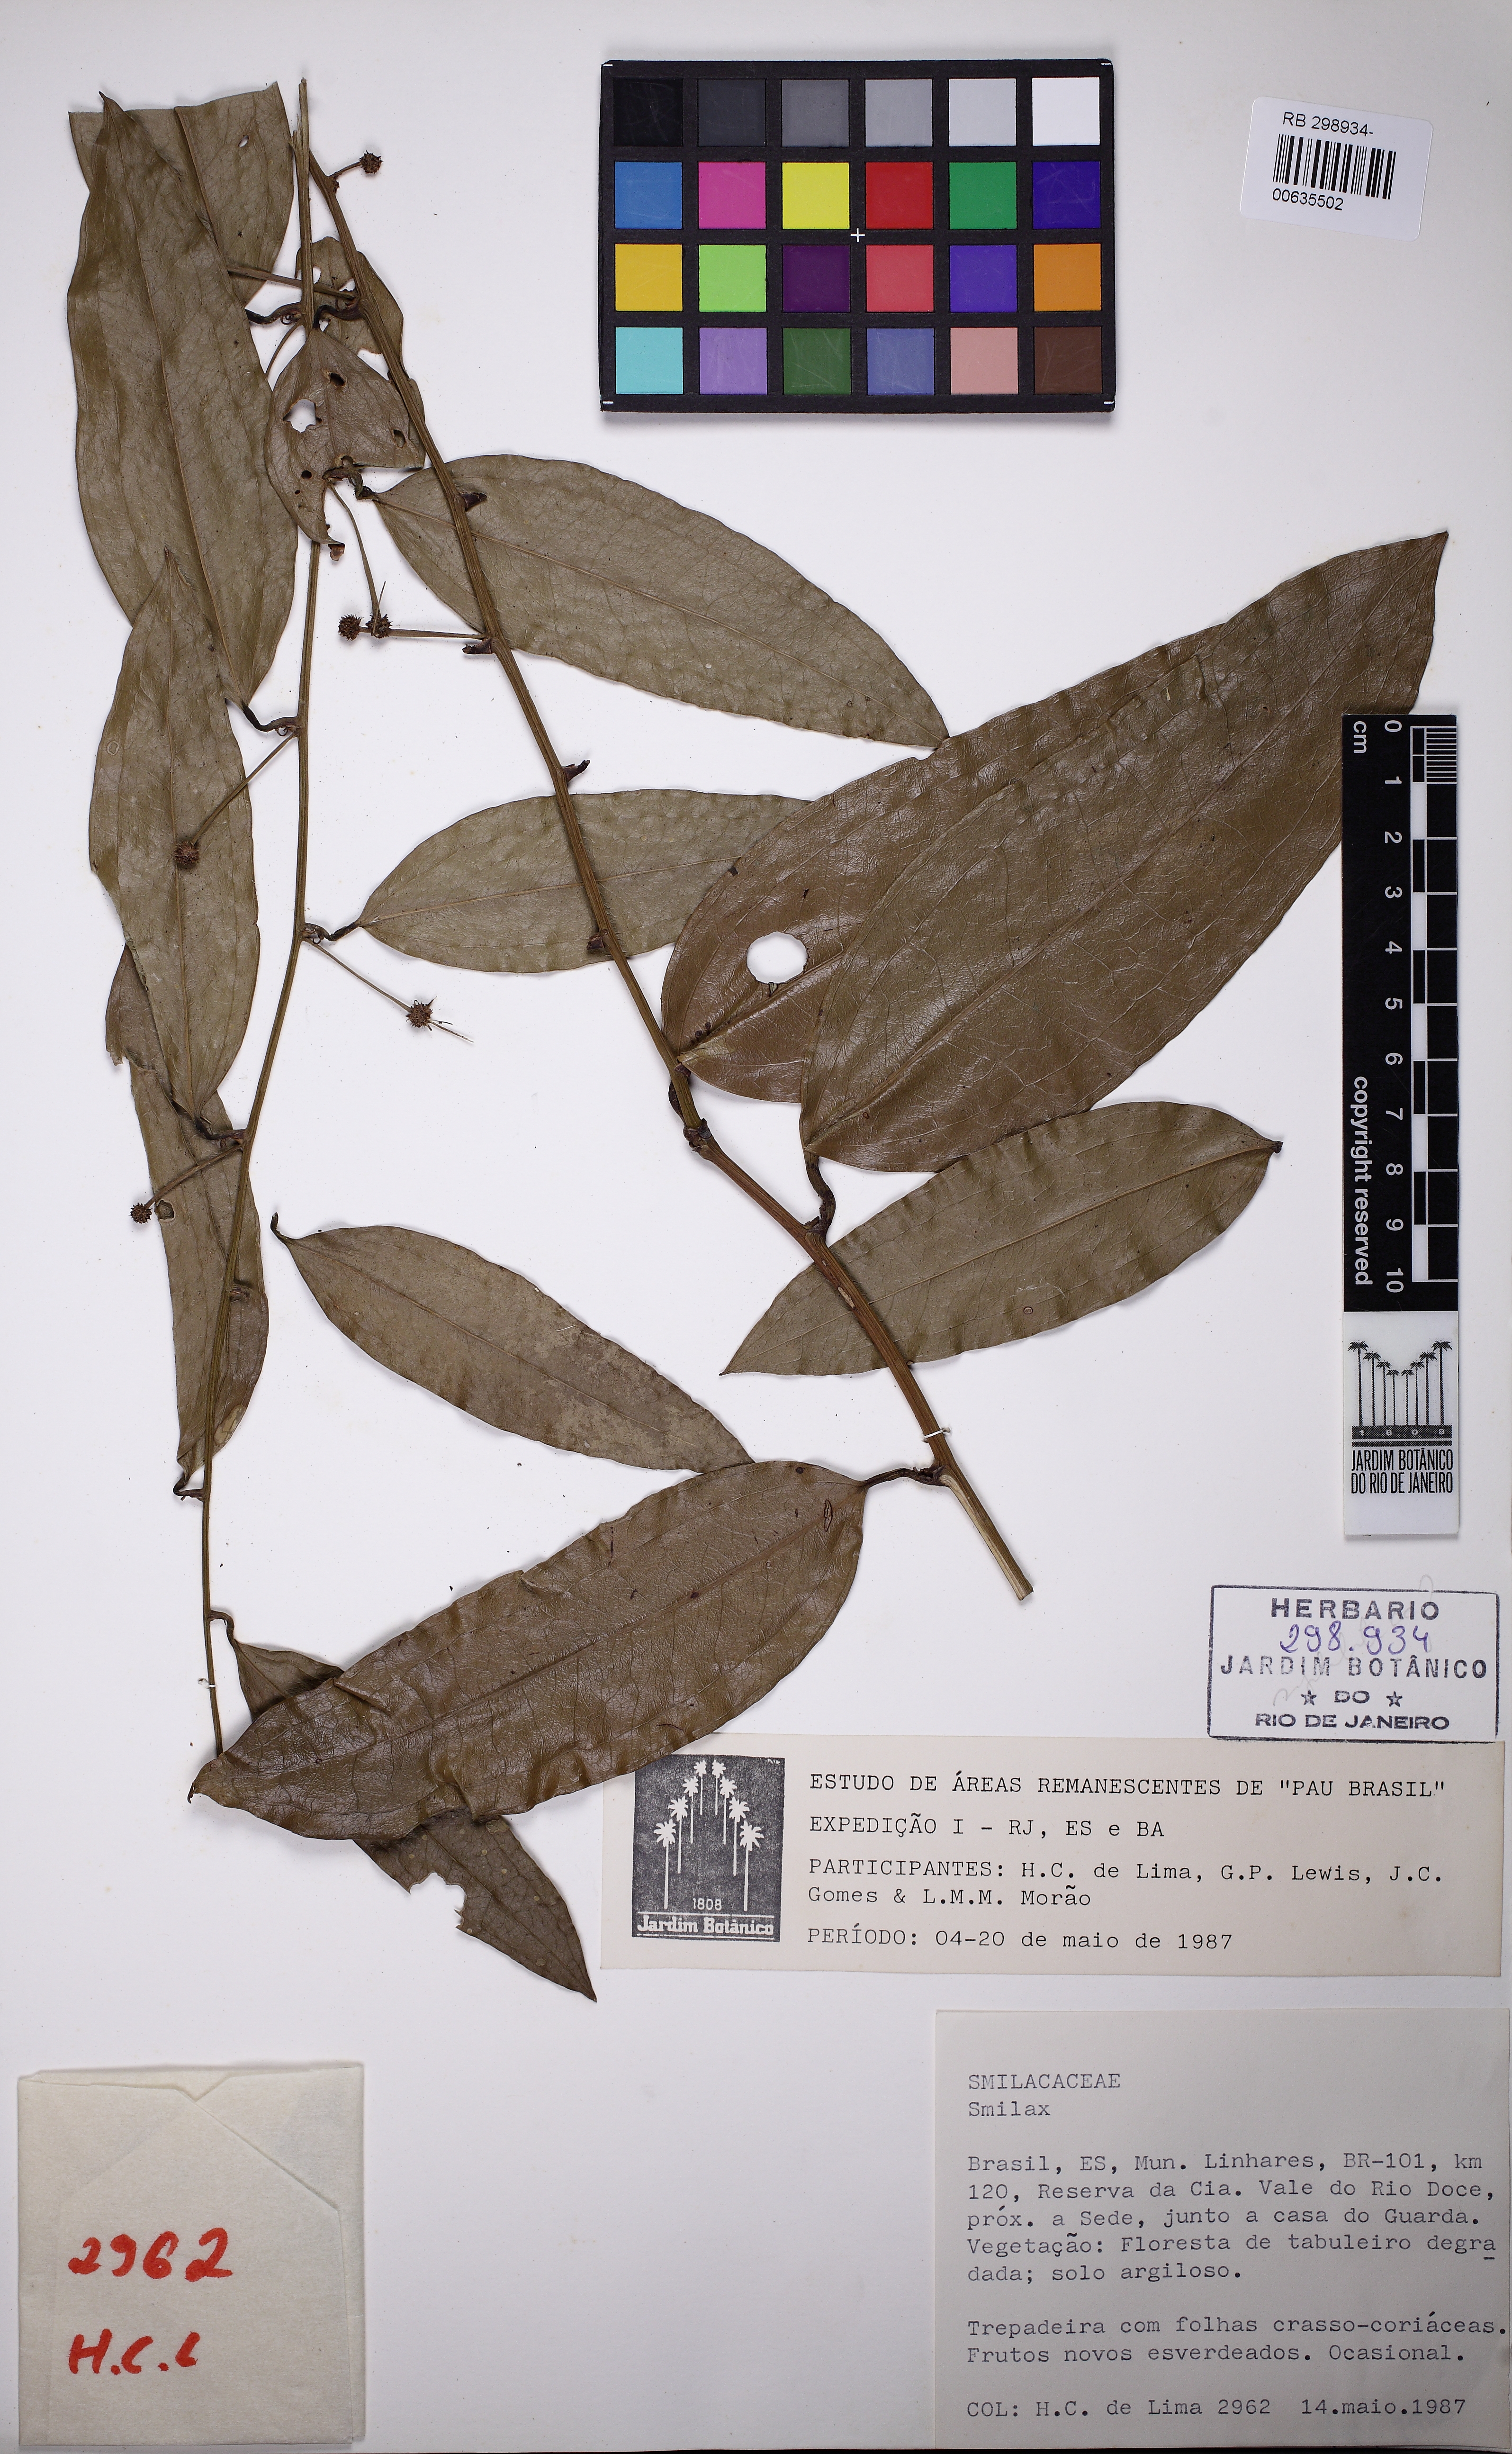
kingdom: Plantae
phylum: Tracheophyta
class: Liliopsida
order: Liliales
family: Smilacaceae
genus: Smilax
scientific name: Smilax
